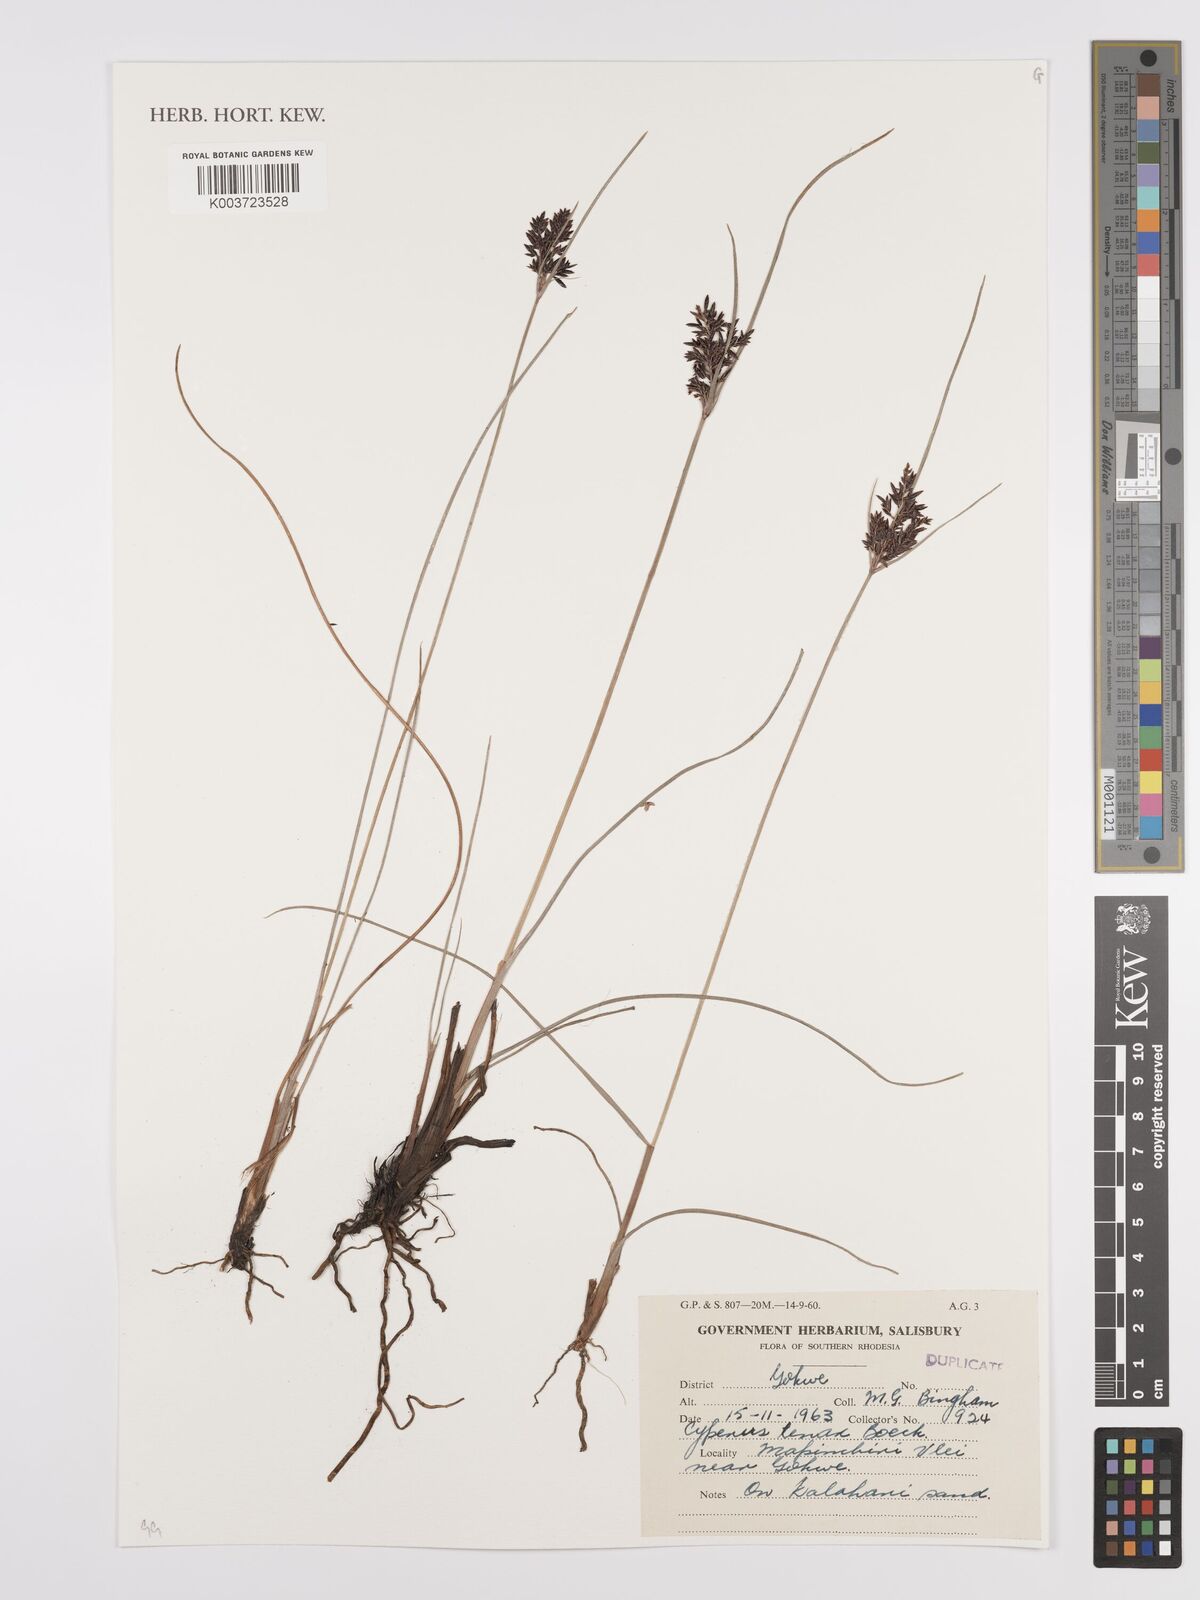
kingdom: Plantae
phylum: Tracheophyta
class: Liliopsida
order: Poales
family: Cyperaceae
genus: Cyperus
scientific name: Cyperus tenax
